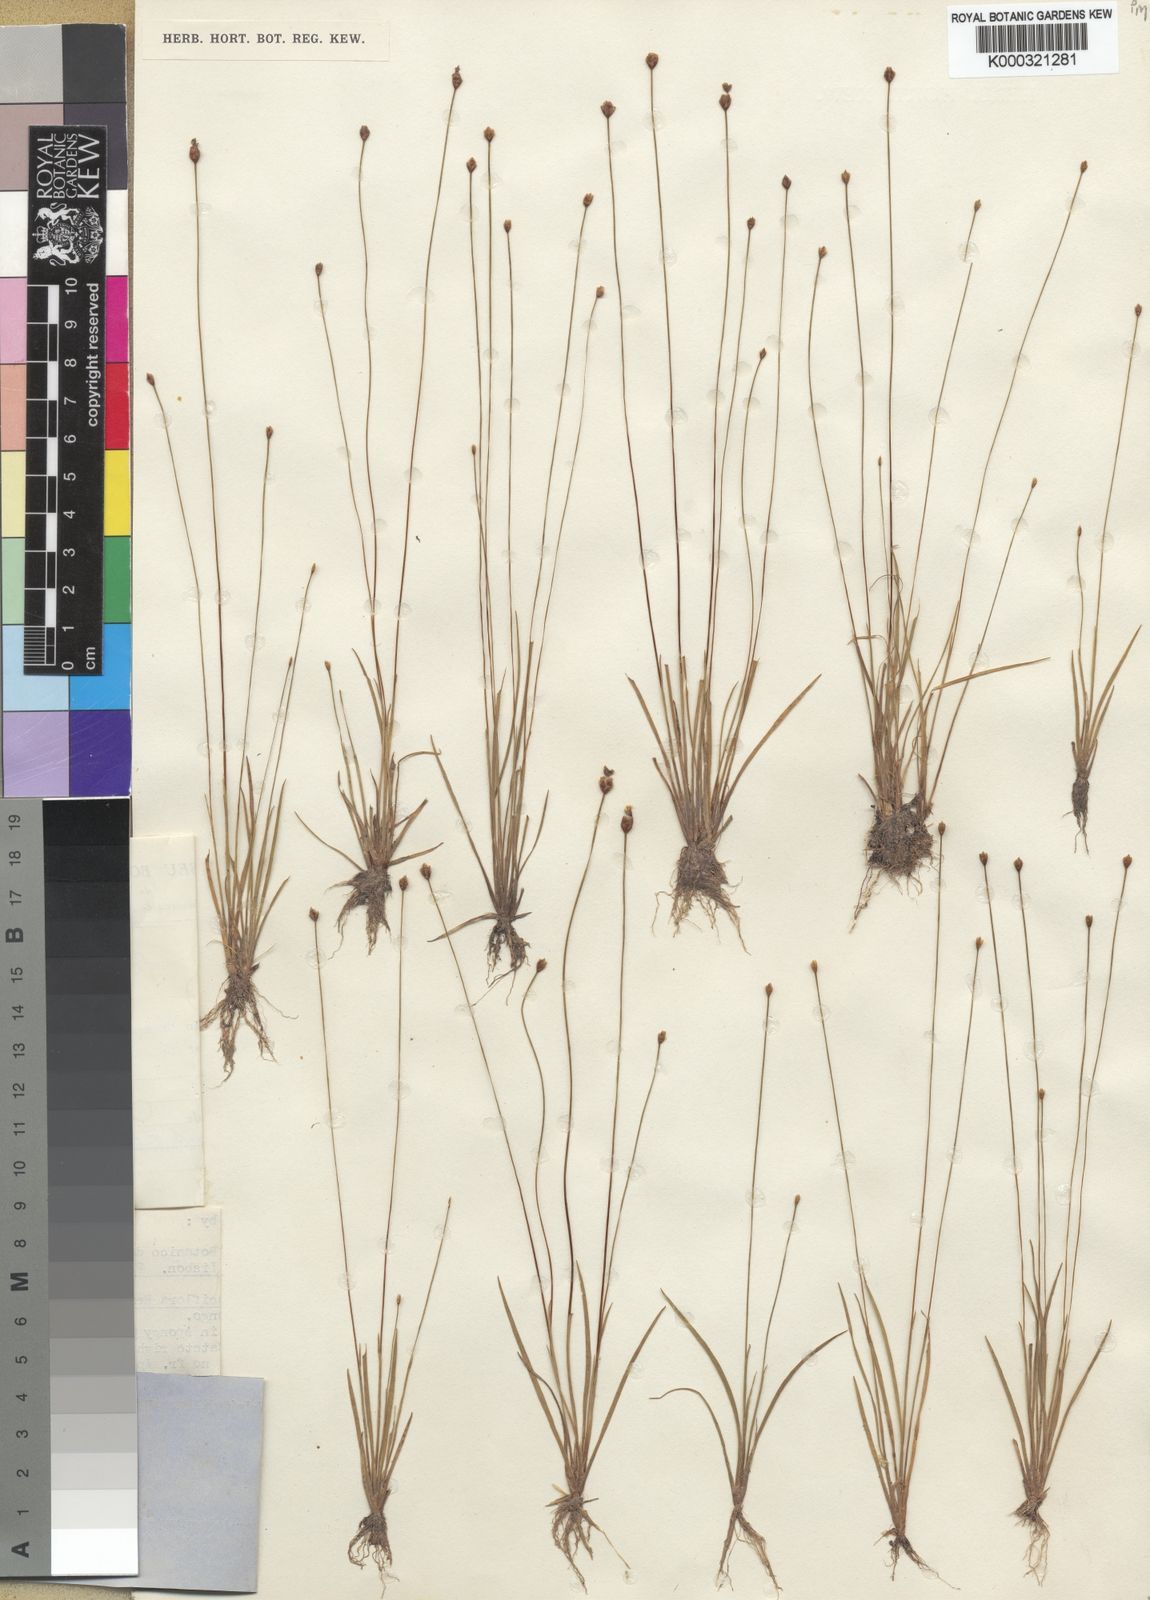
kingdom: Plantae
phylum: Tracheophyta
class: Liliopsida
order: Poales
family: Xyridaceae
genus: Xyris
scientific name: Xyris fugaciflora
